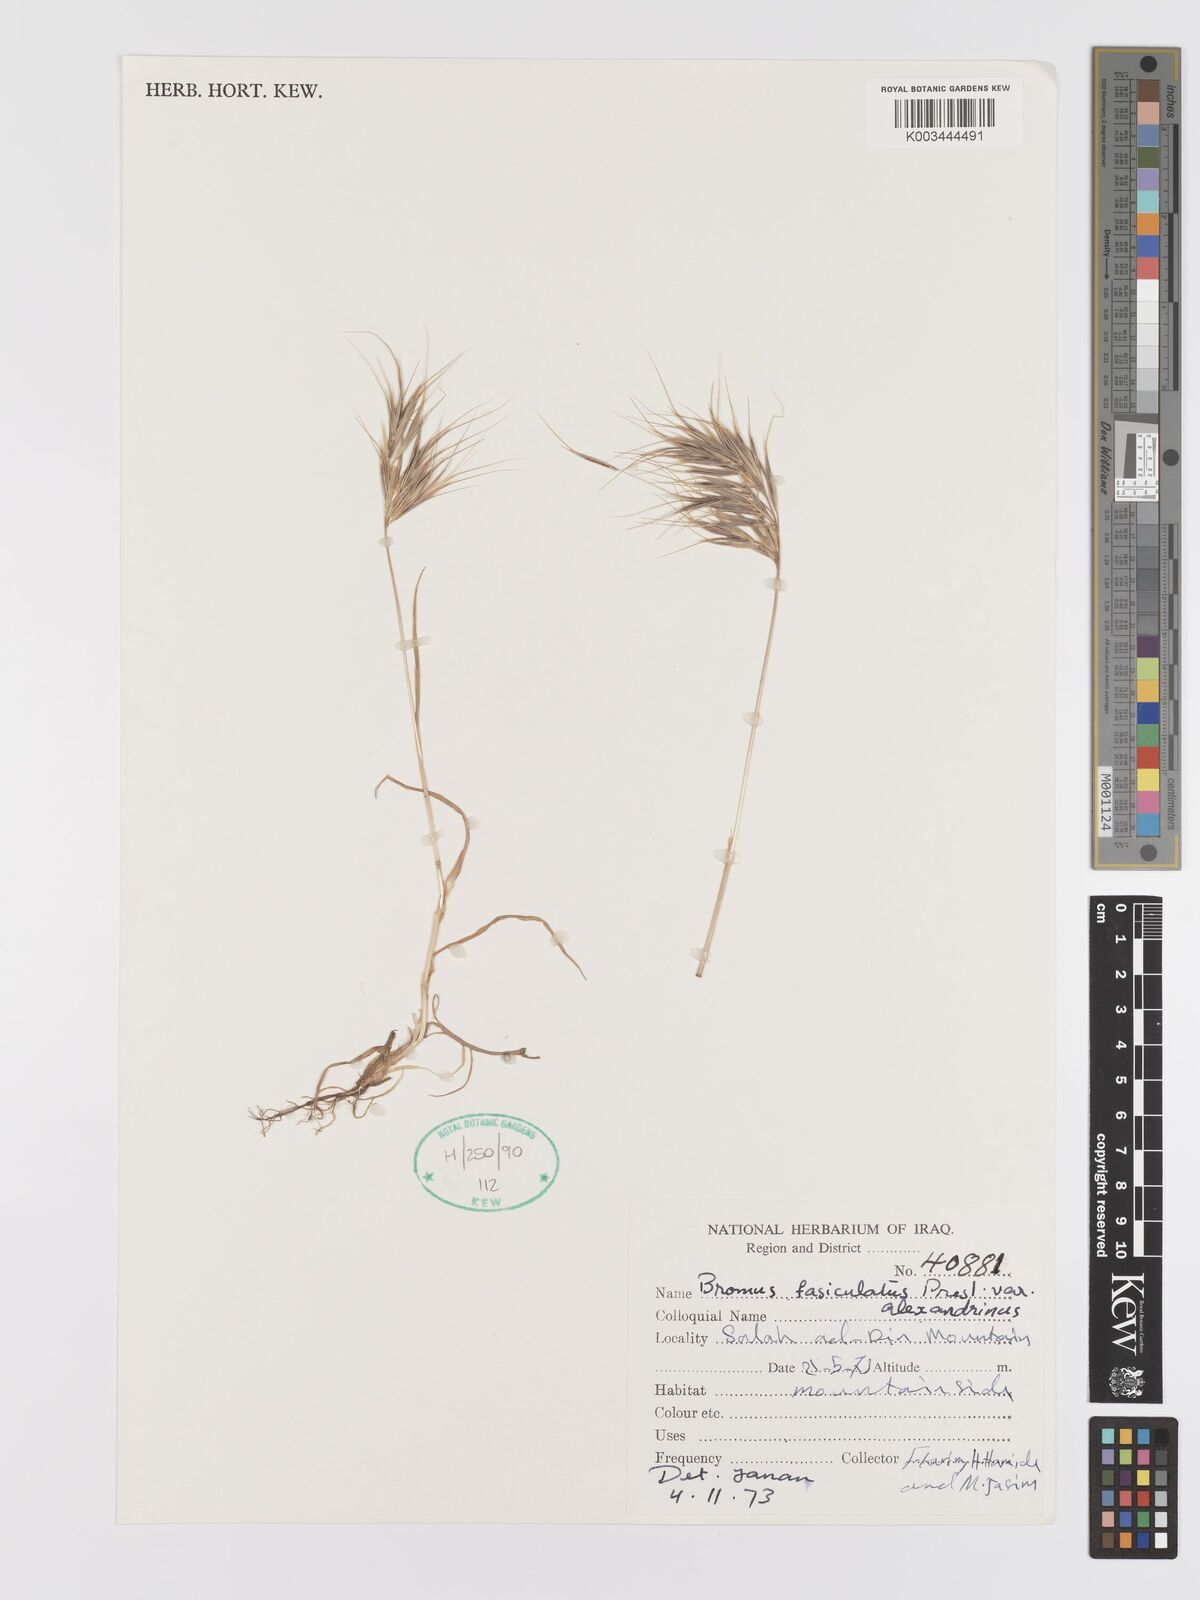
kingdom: Plantae
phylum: Tracheophyta
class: Liliopsida
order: Poales
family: Poaceae
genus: Bromus
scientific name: Bromus fasciculatus
